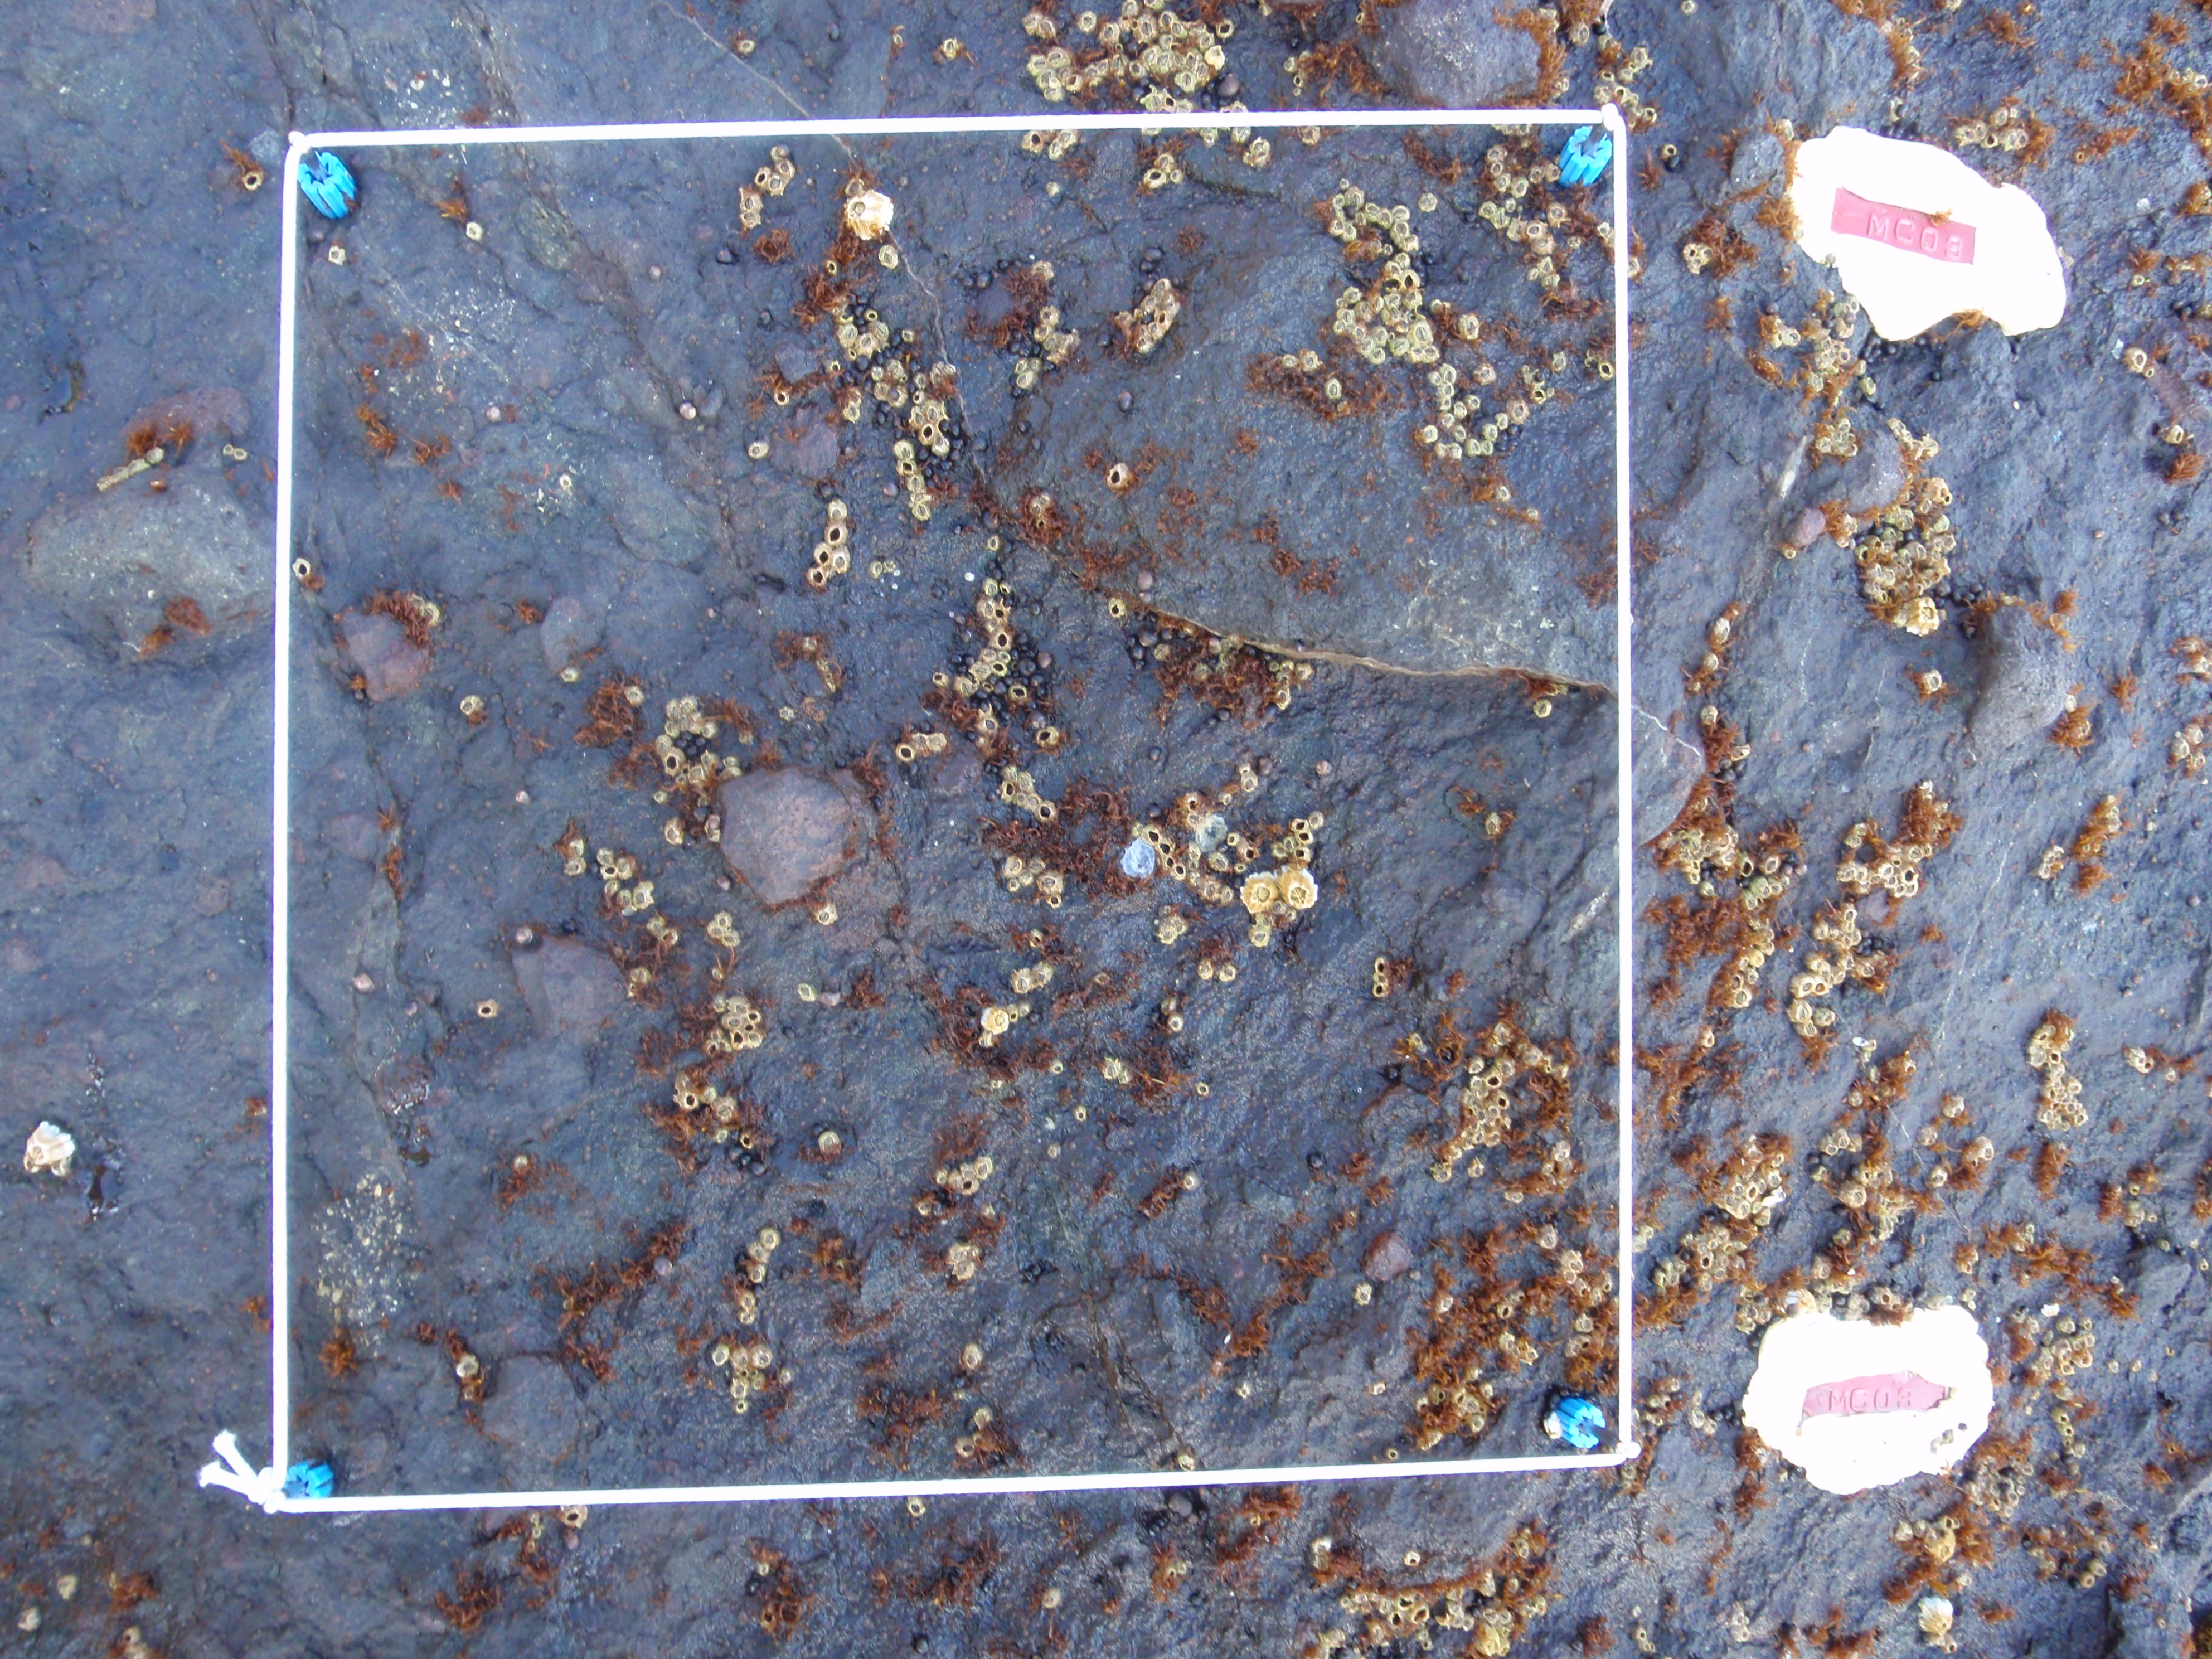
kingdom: Plantae
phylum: Rhodophyta
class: Florideophyceae
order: Gigartinales
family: Endocladiaceae
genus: Gloiopeltis
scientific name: Gloiopeltis furcata
